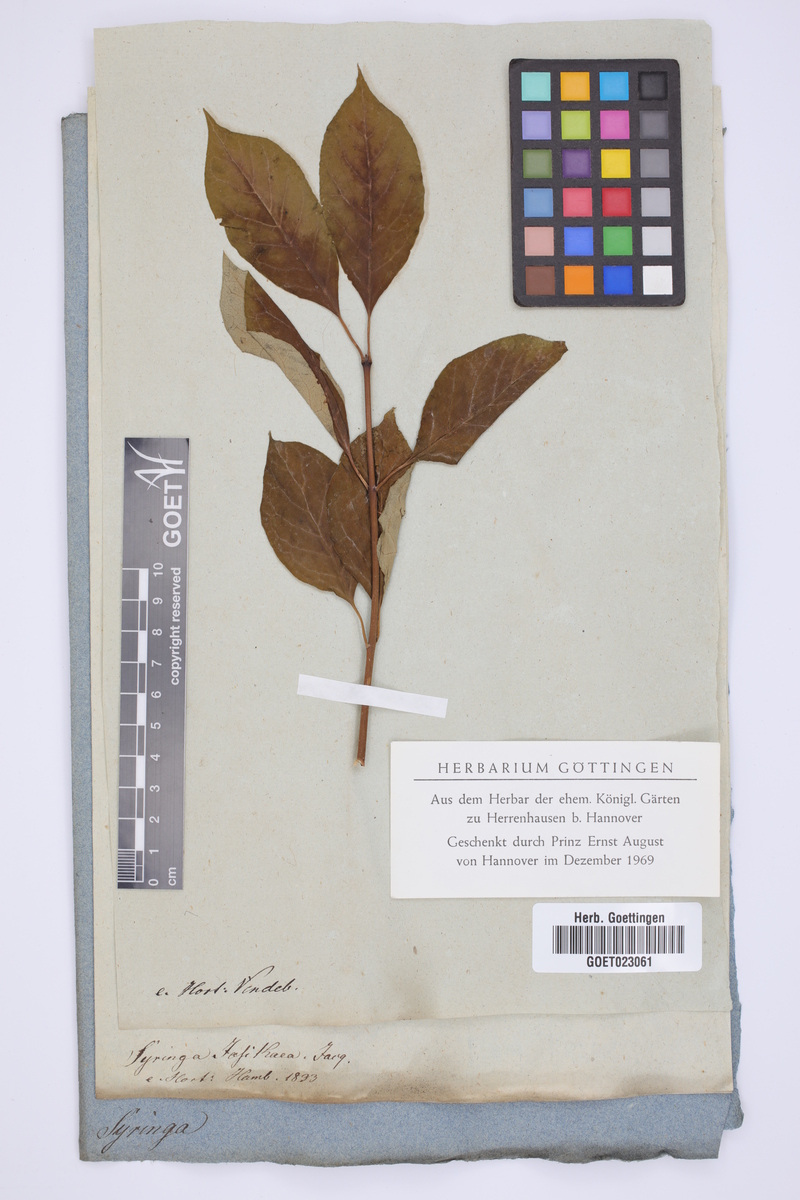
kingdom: Plantae
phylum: Tracheophyta
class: Magnoliopsida
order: Lamiales
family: Oleaceae
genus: Syringa
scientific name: Syringa josikaea
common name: Hungarian lilac
